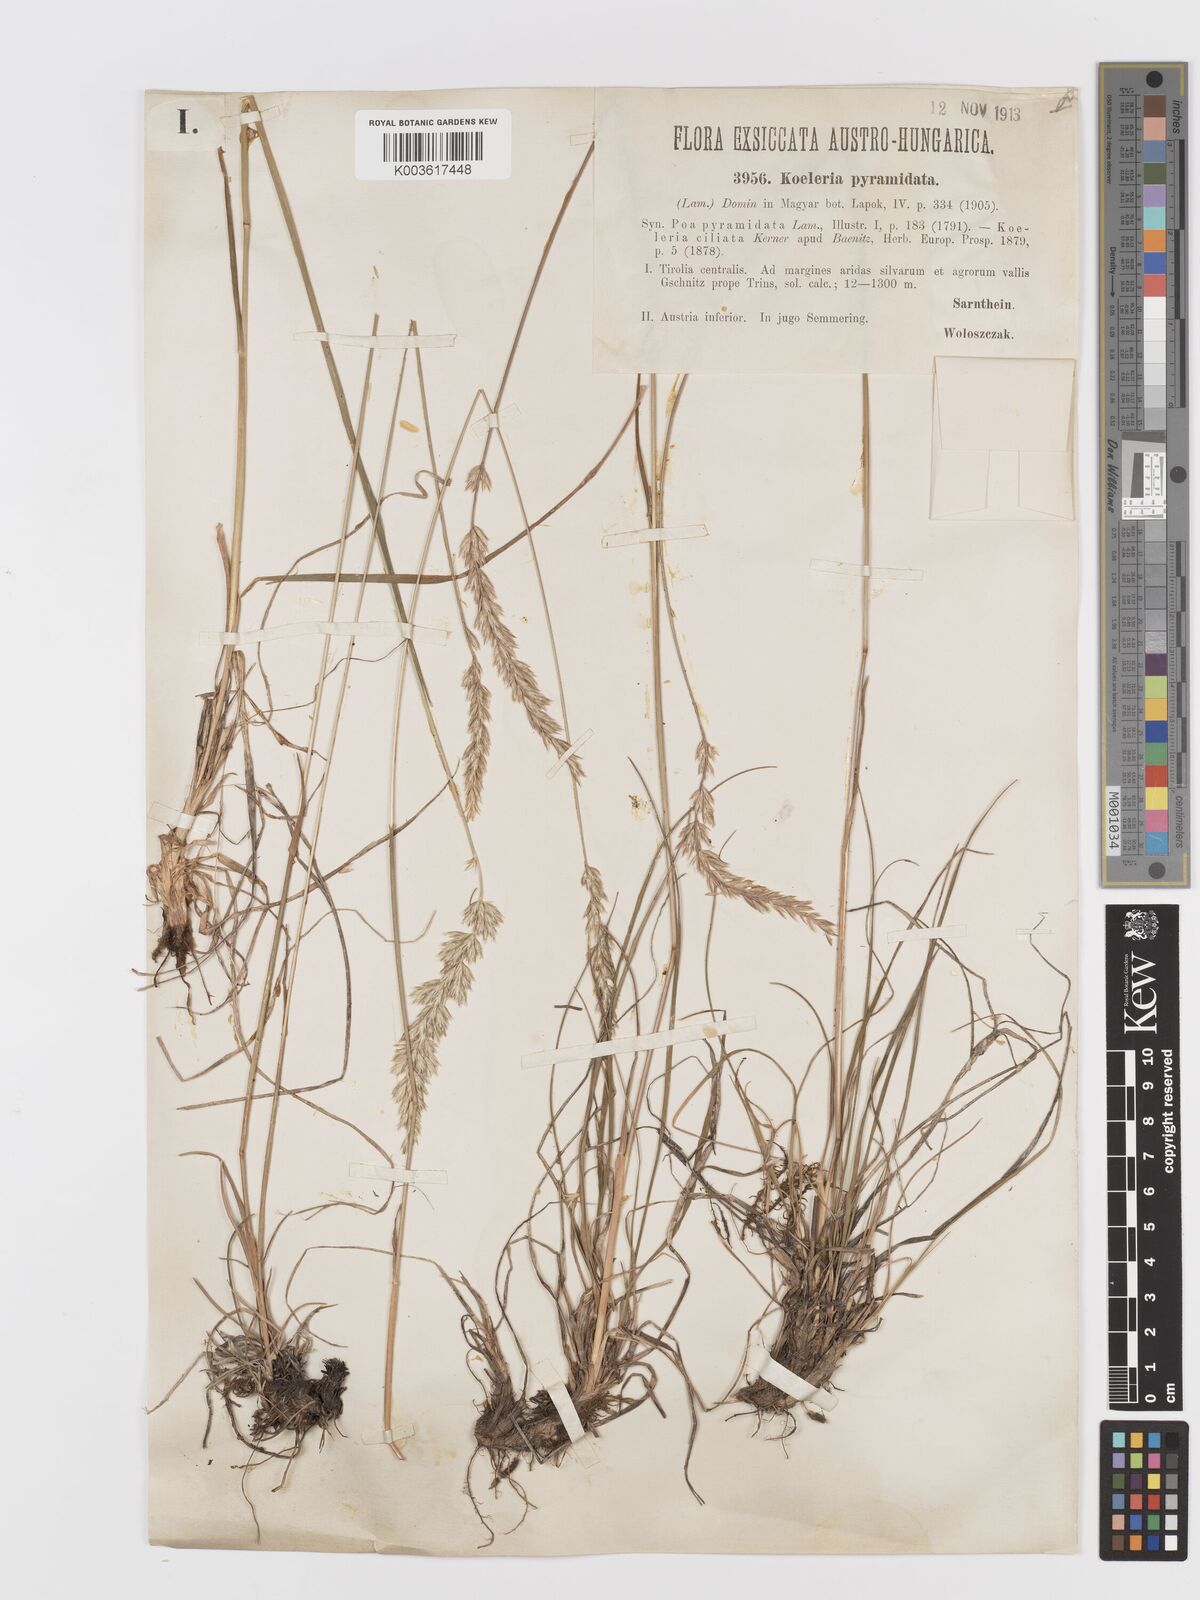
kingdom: Plantae
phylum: Tracheophyta
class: Liliopsida
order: Poales
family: Poaceae
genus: Koeleria
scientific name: Koeleria pyramidata
